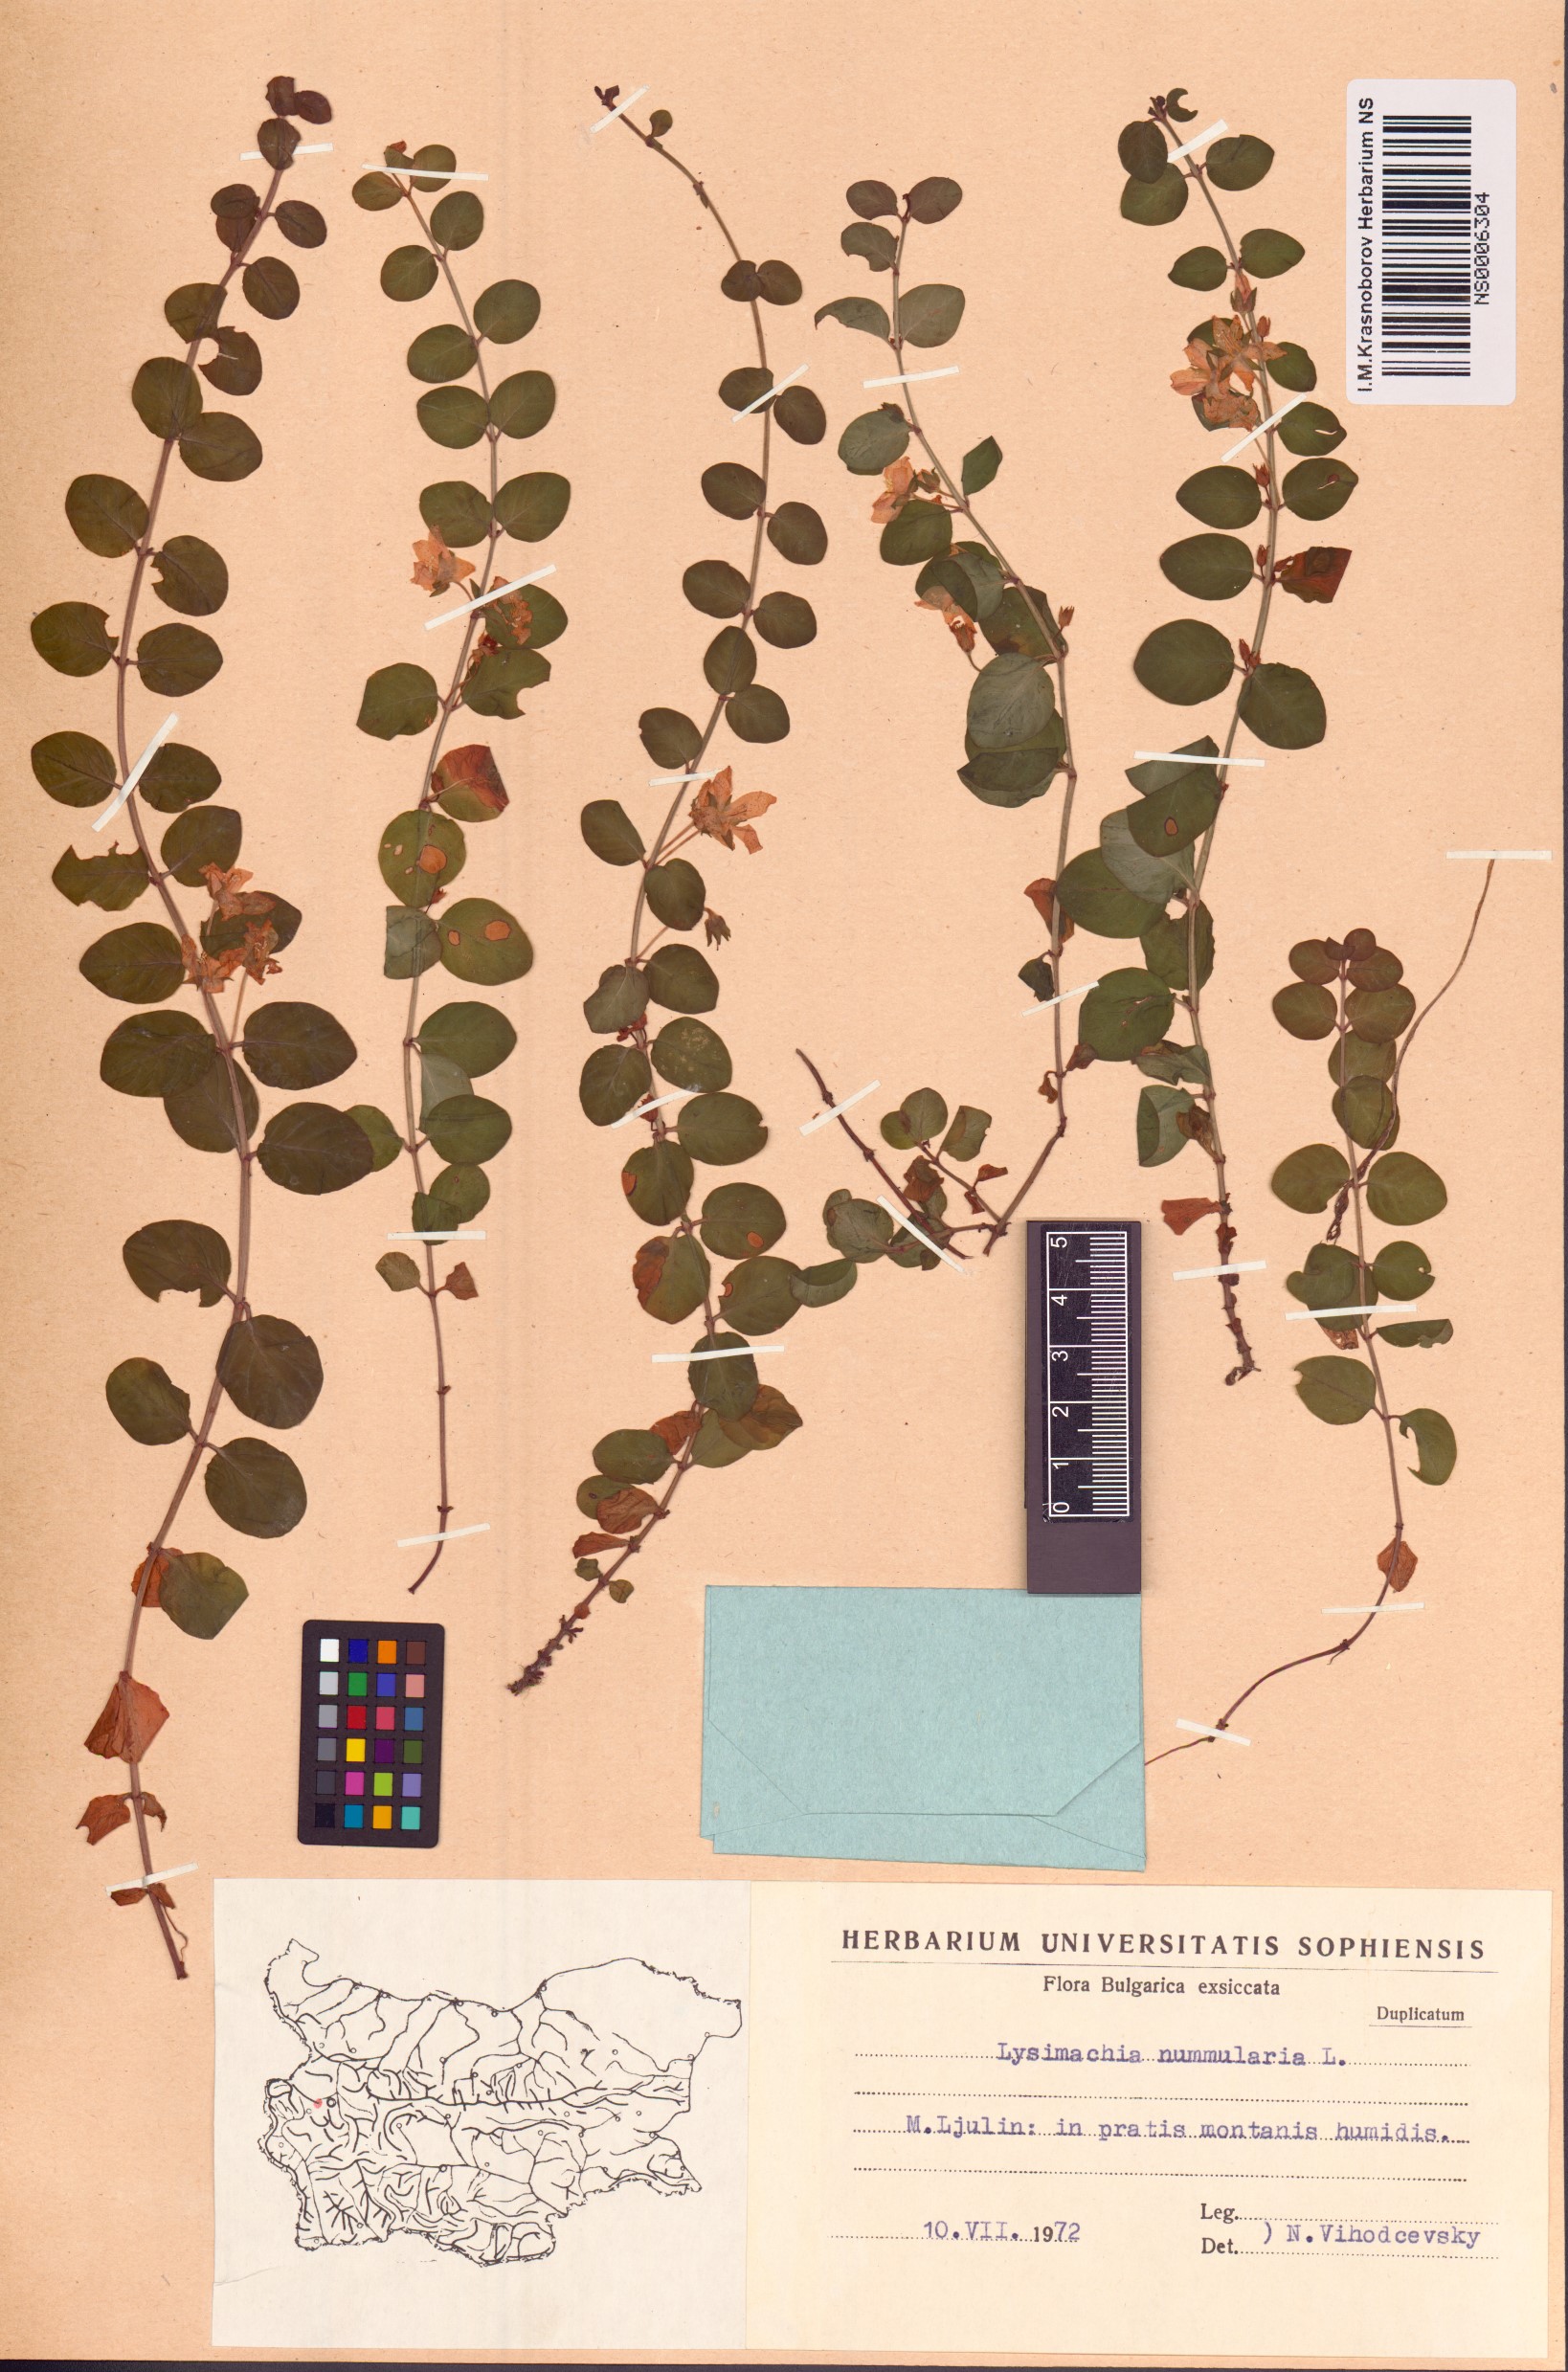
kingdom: Plantae
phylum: Tracheophyta
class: Magnoliopsida
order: Ericales
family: Primulaceae
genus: Lysimachia
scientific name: Lysimachia nummularia
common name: Moneywort
